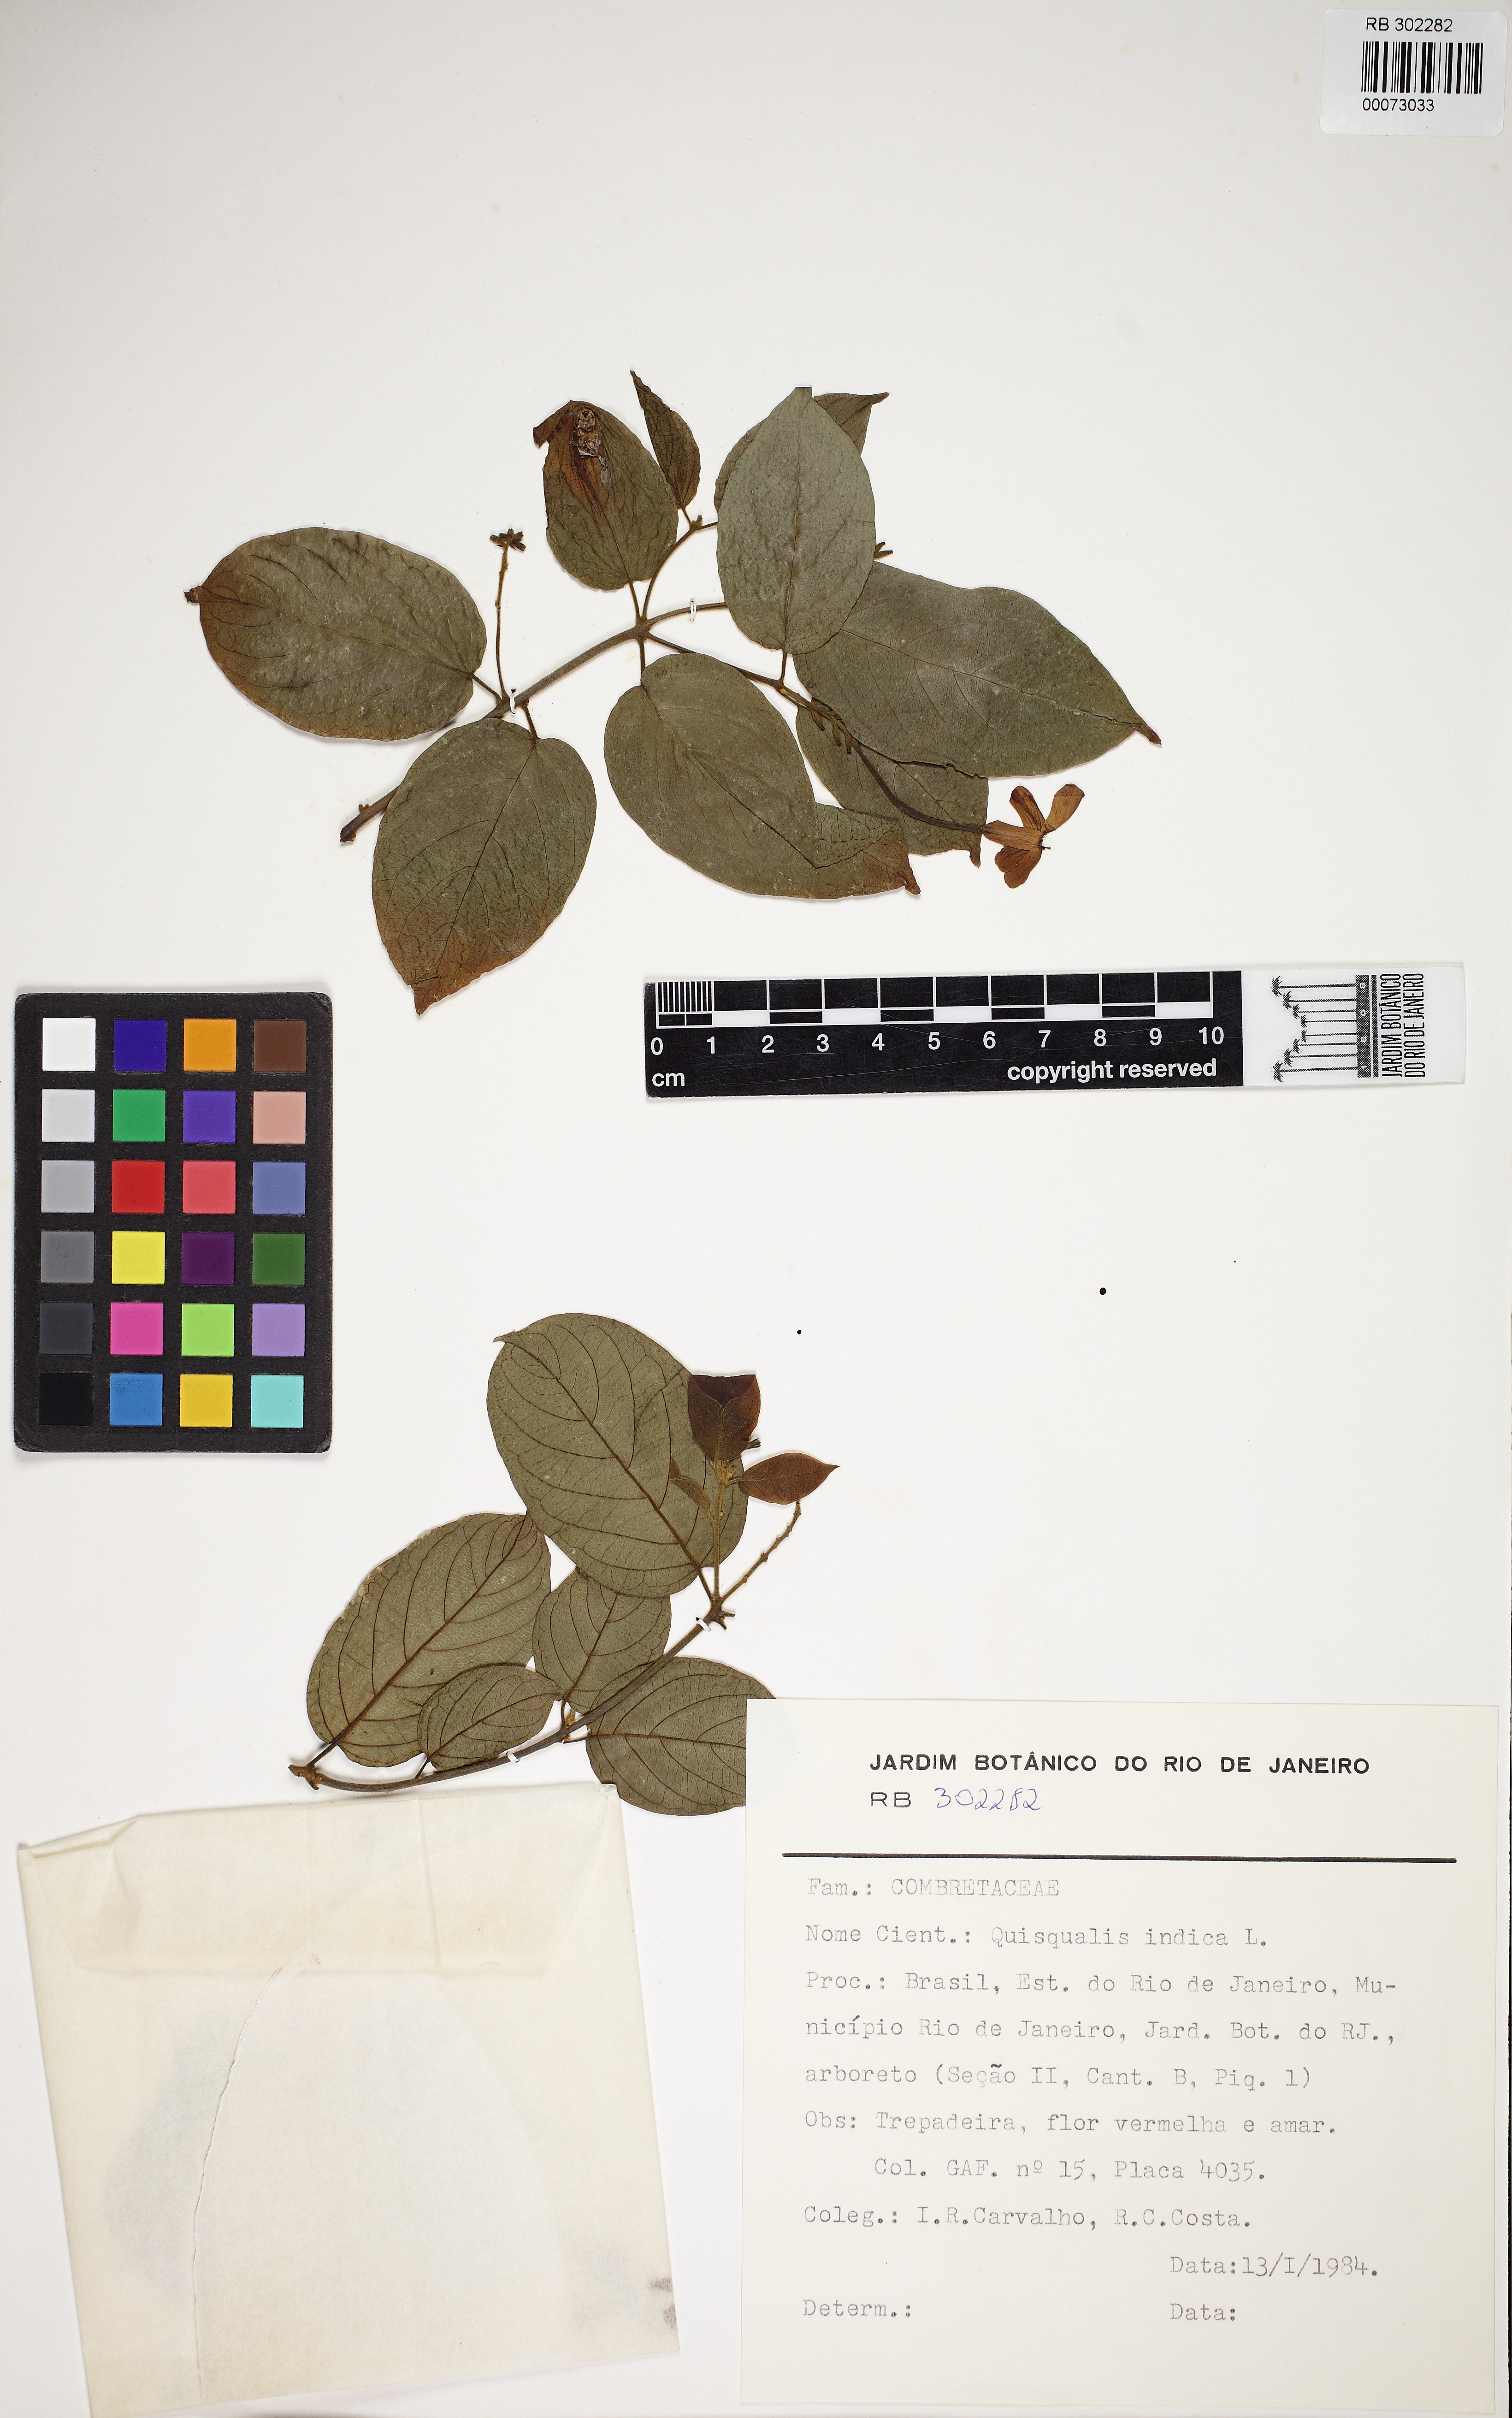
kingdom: Plantae
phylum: Tracheophyta
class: Magnoliopsida
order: Myrtales
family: Combretaceae
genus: Combretum
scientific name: Combretum indicum
